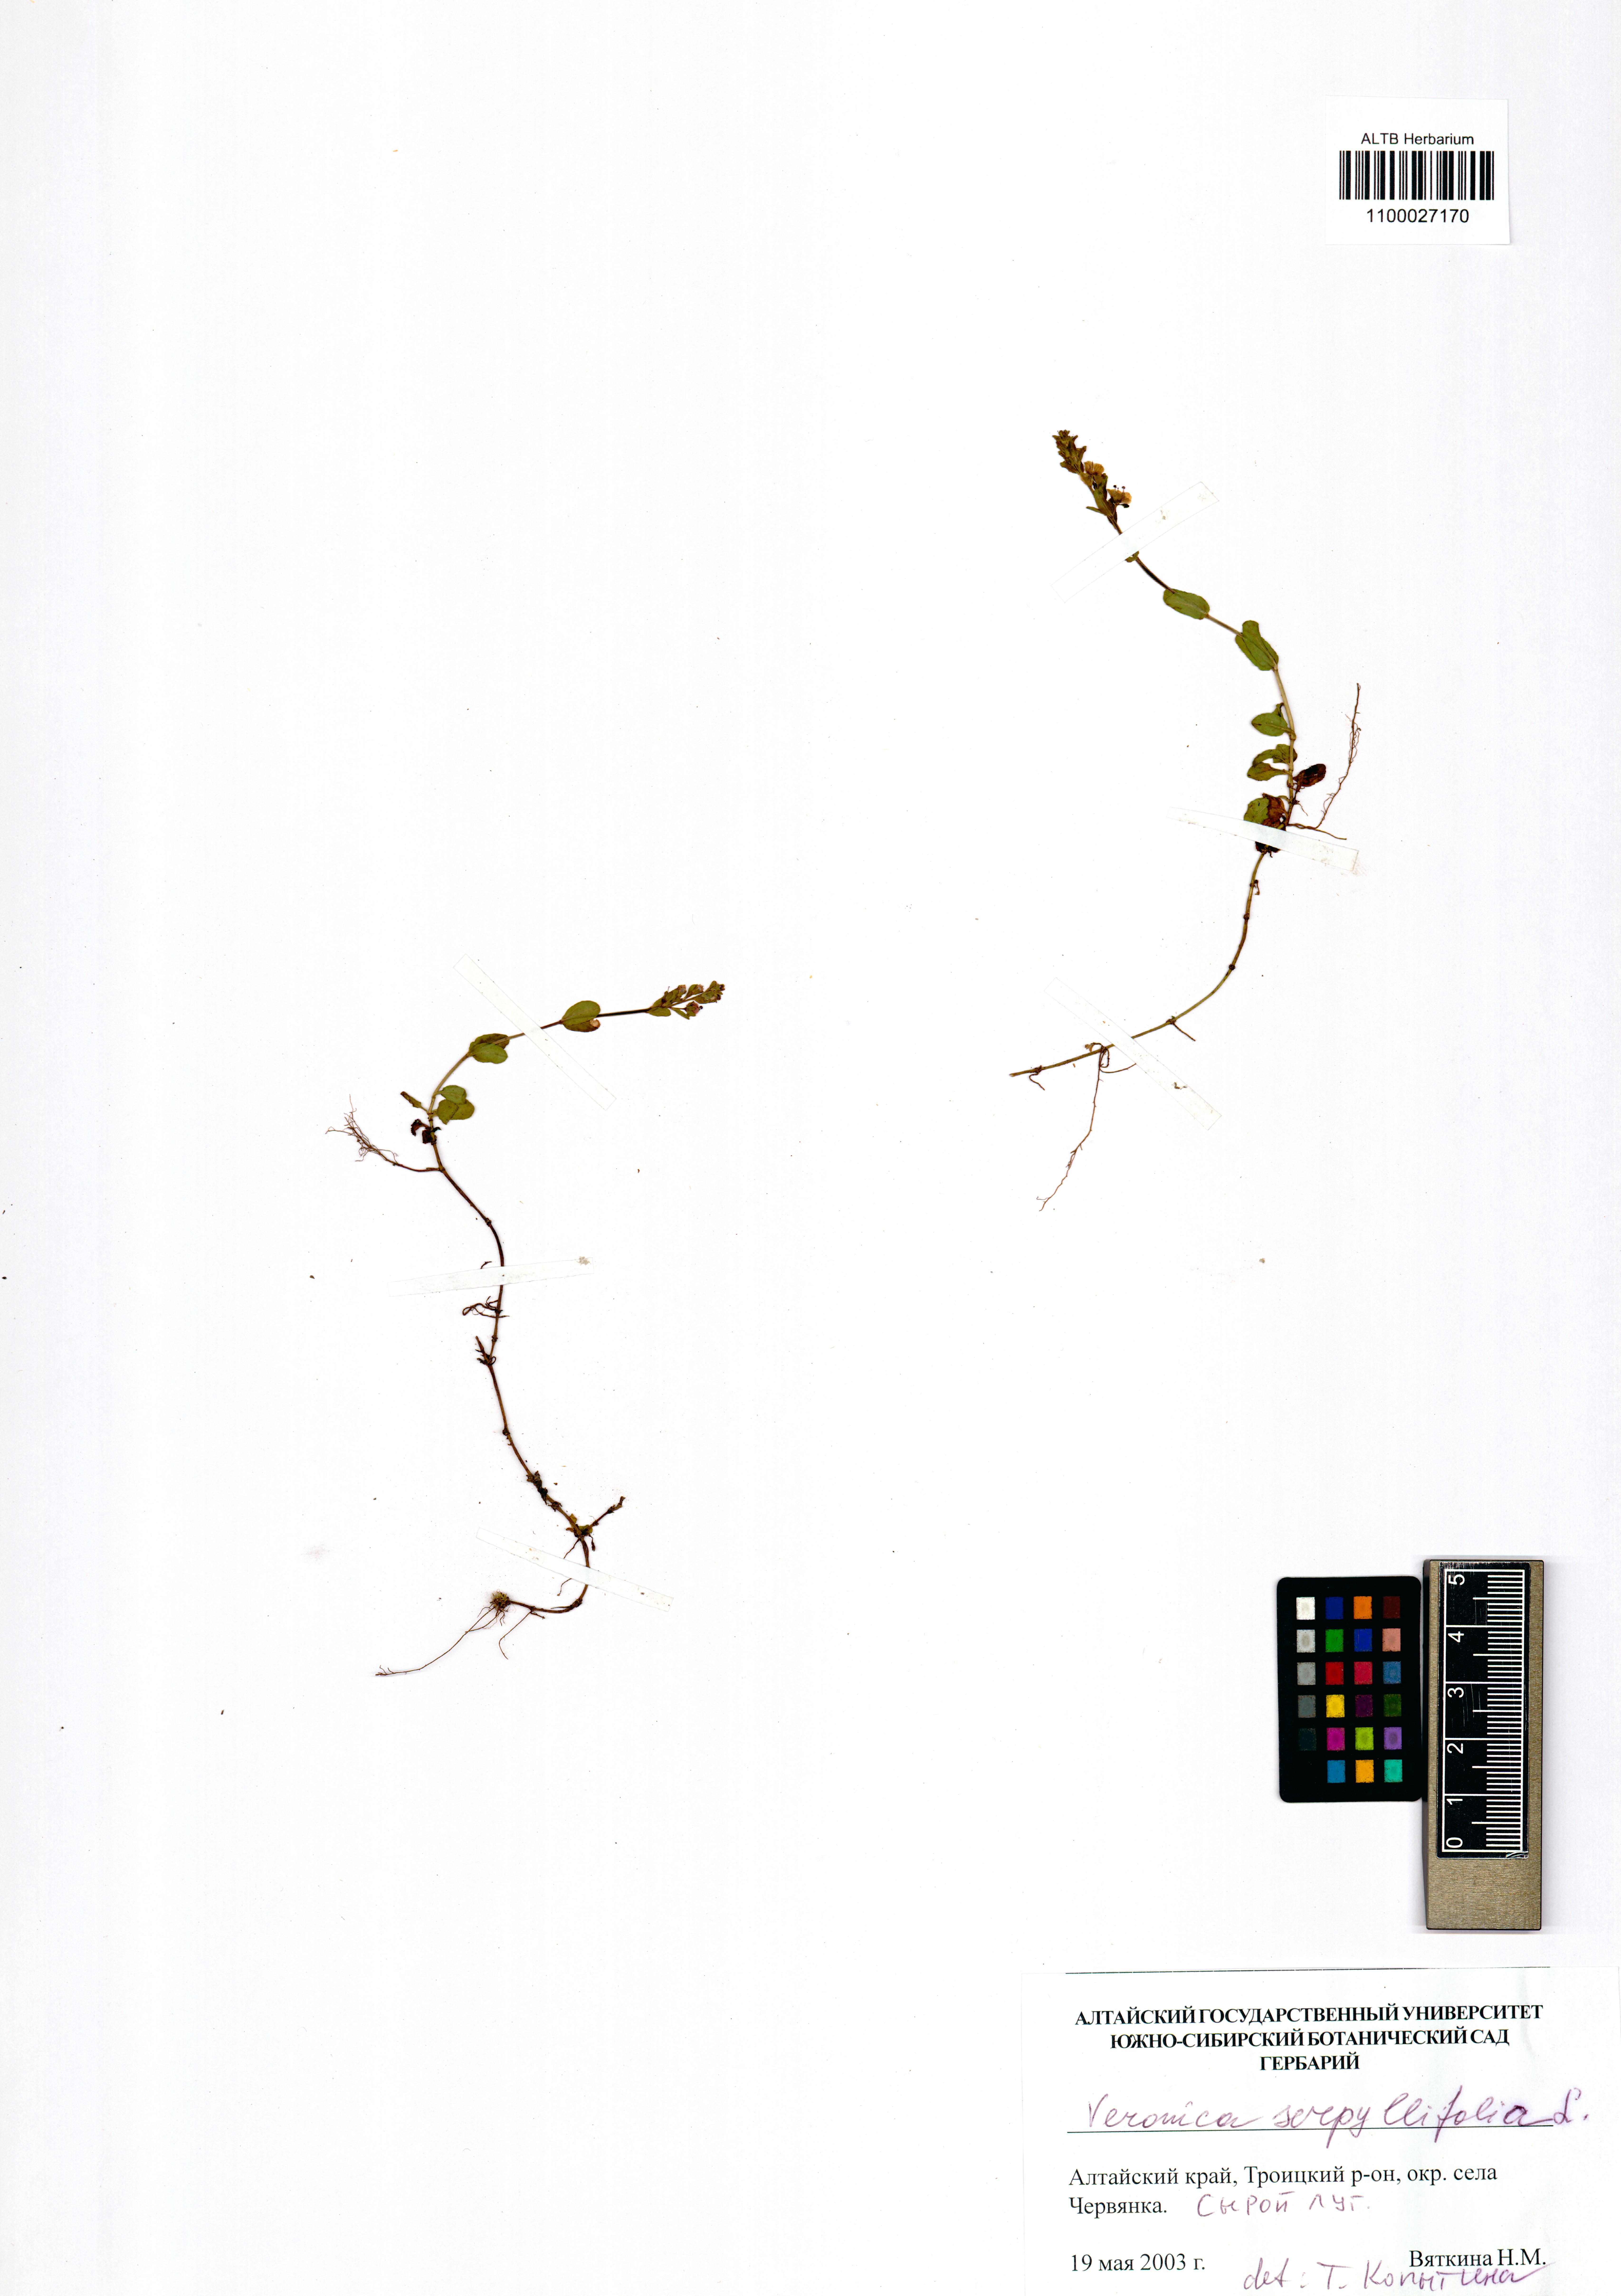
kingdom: Plantae
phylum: Tracheophyta
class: Magnoliopsida
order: Lamiales
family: Plantaginaceae
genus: Veronica
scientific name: Veronica serpyllifolia
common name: Thyme-leaved speedwell
